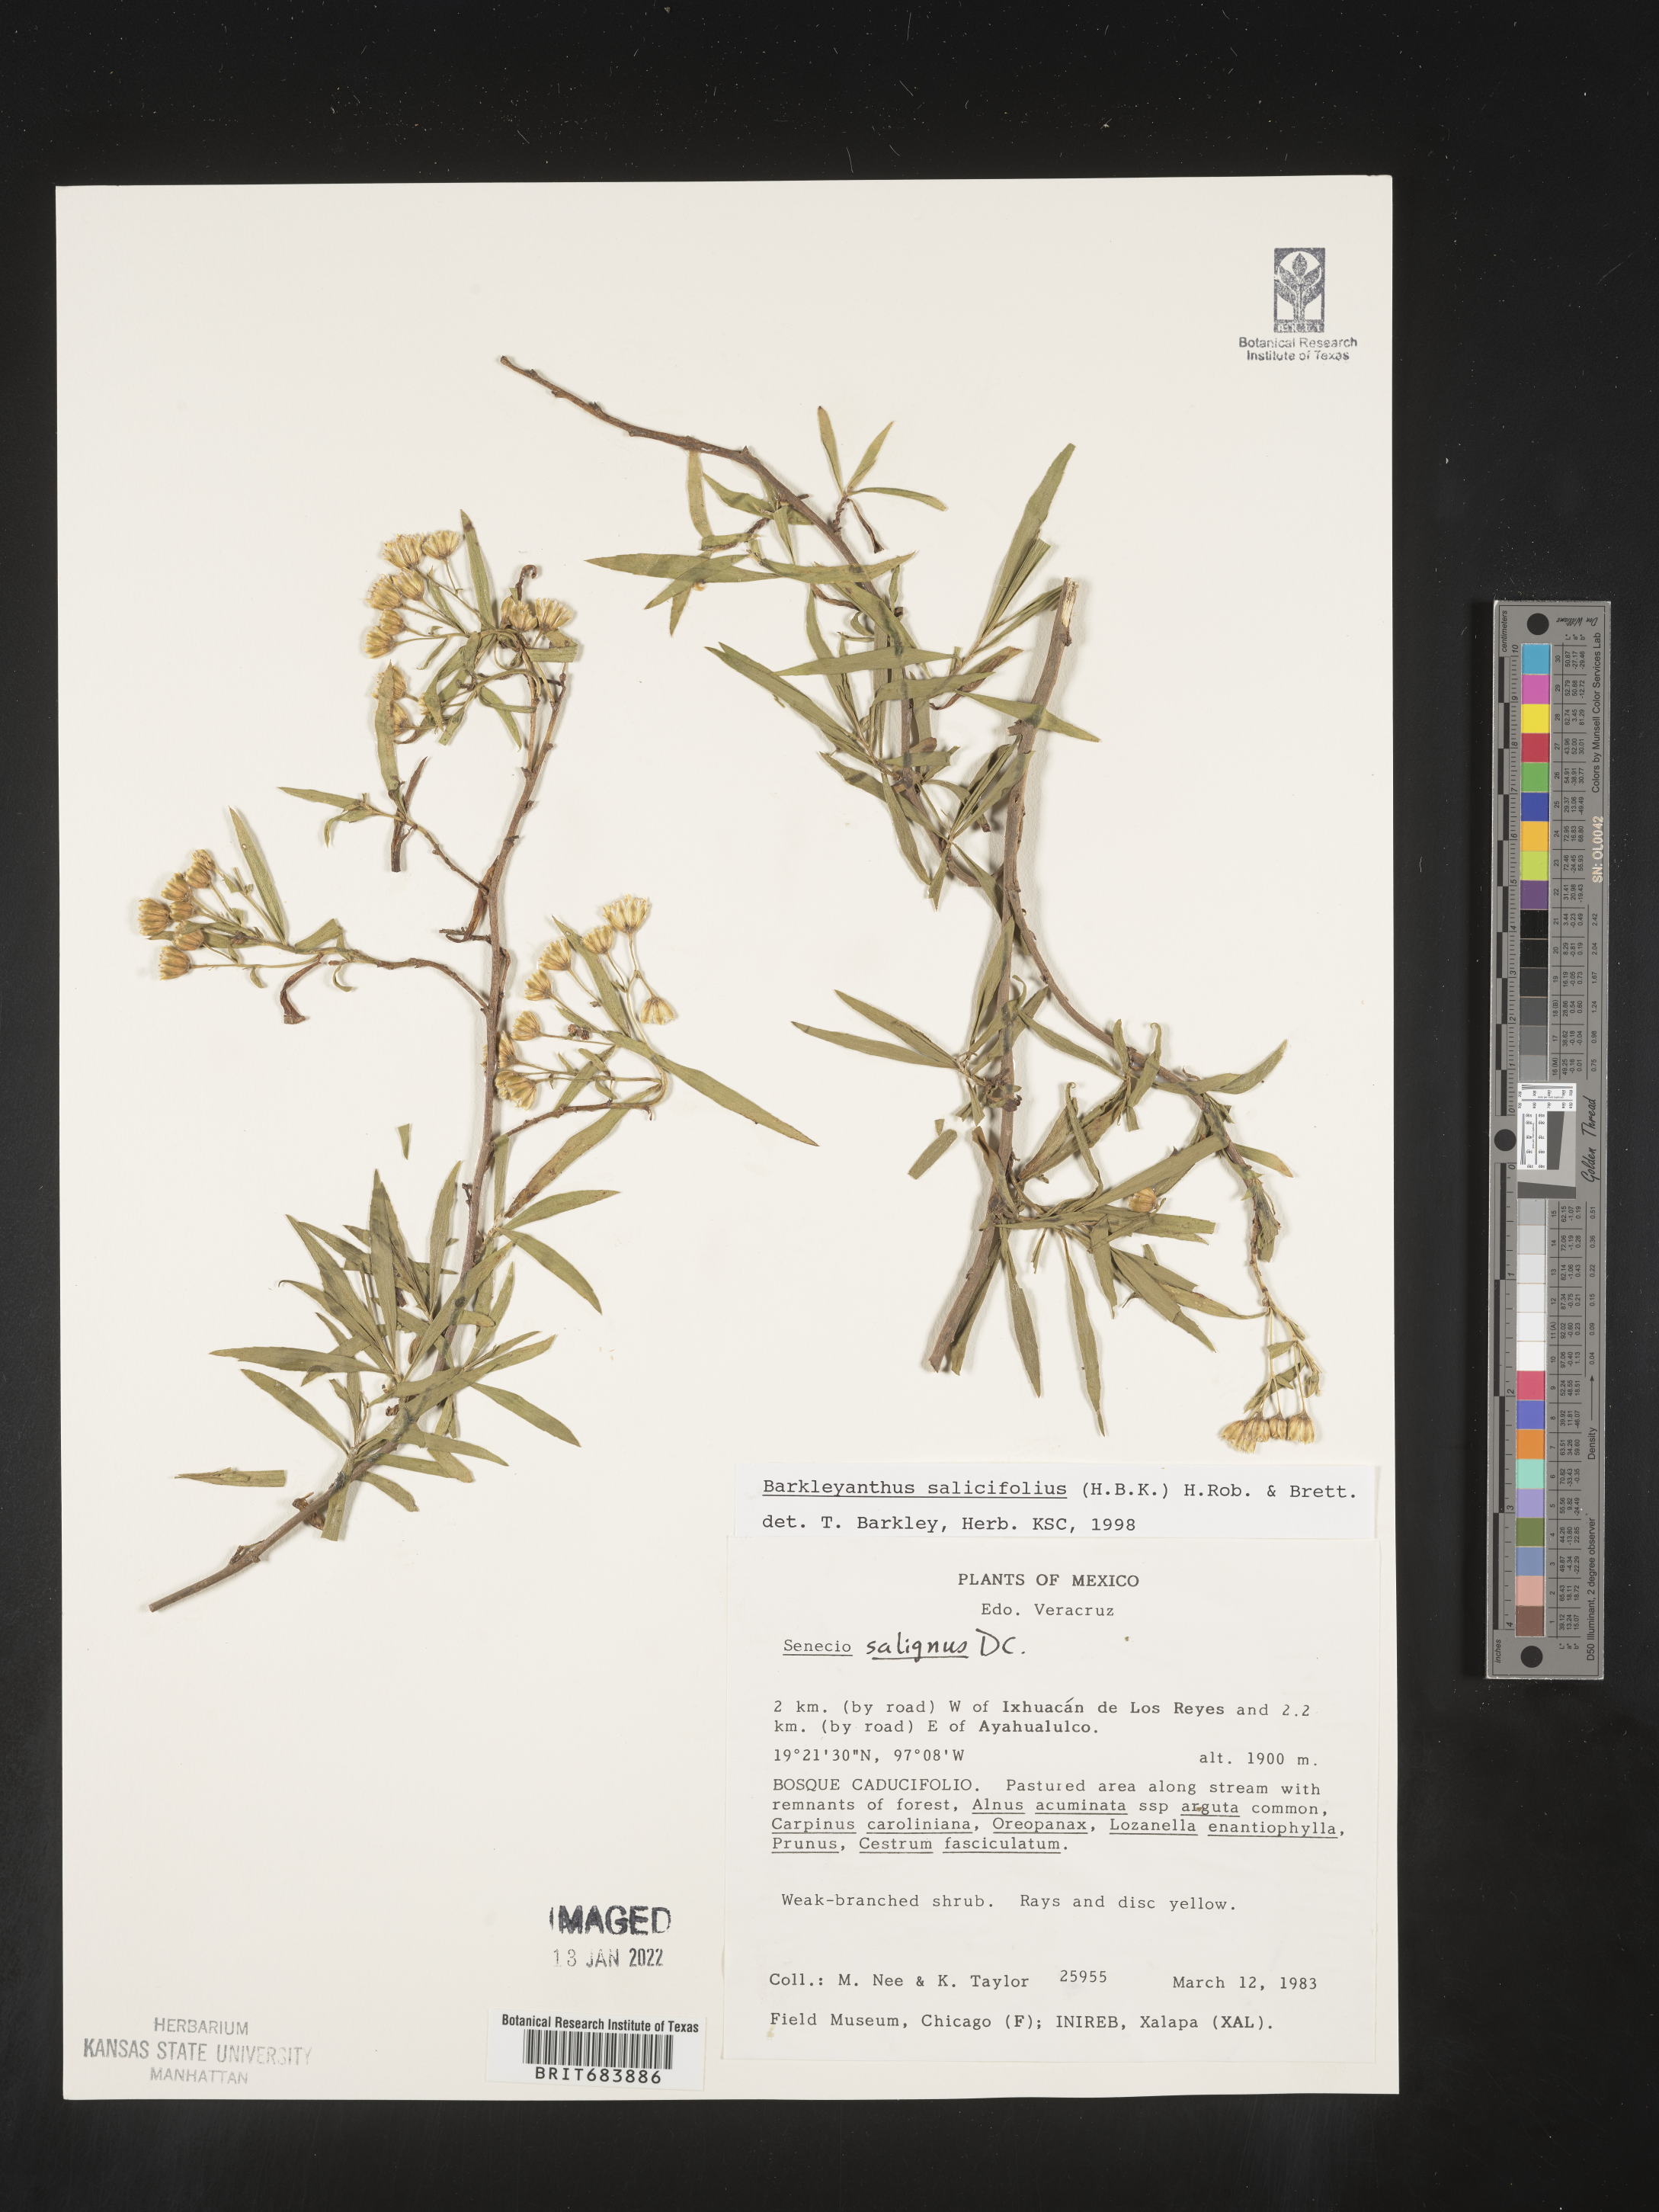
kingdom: Plantae
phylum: Tracheophyta
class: Magnoliopsida
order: Asterales
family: Asteraceae
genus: Barkleyanthus
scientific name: Barkleyanthus
